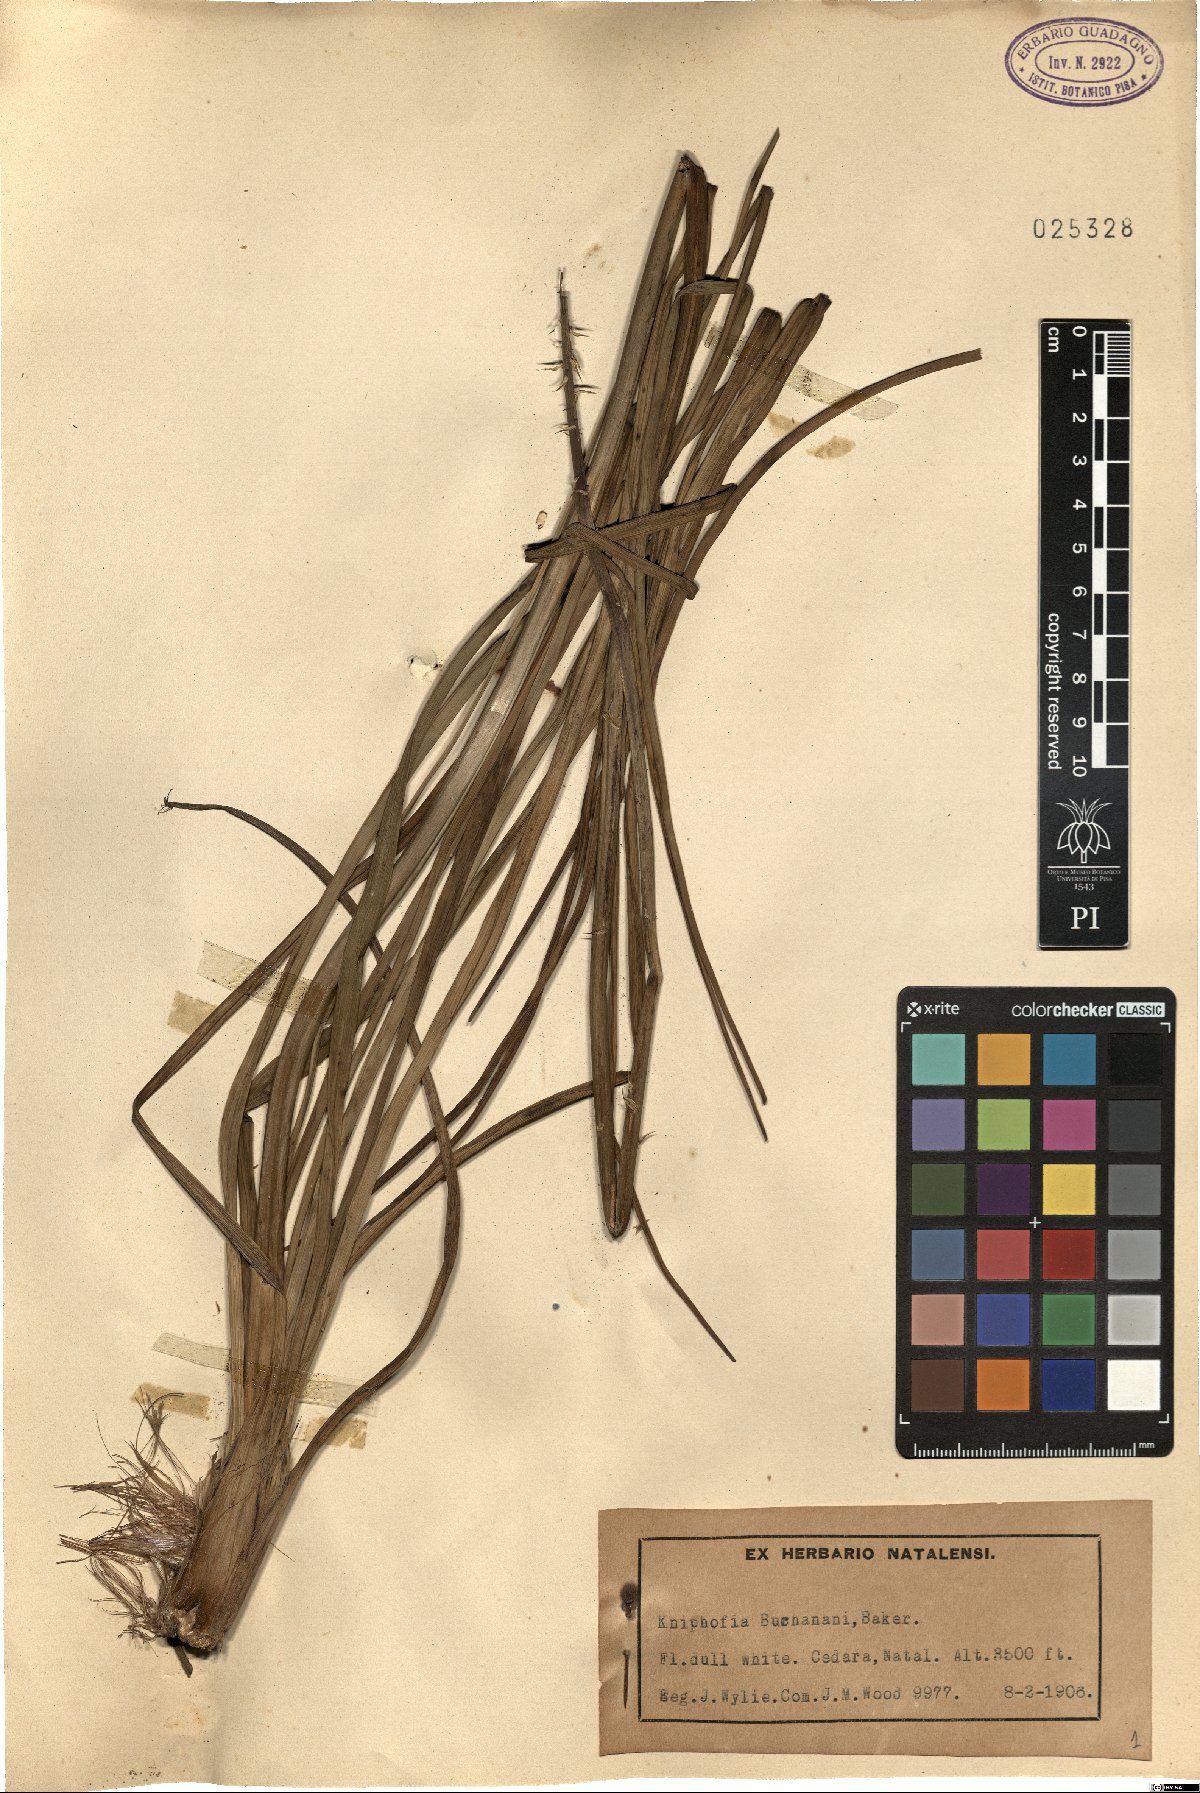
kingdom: Plantae
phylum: Tracheophyta
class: Liliopsida
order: Asparagales
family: Asphodelaceae
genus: Kniphofia
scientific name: Kniphofia buchananii
